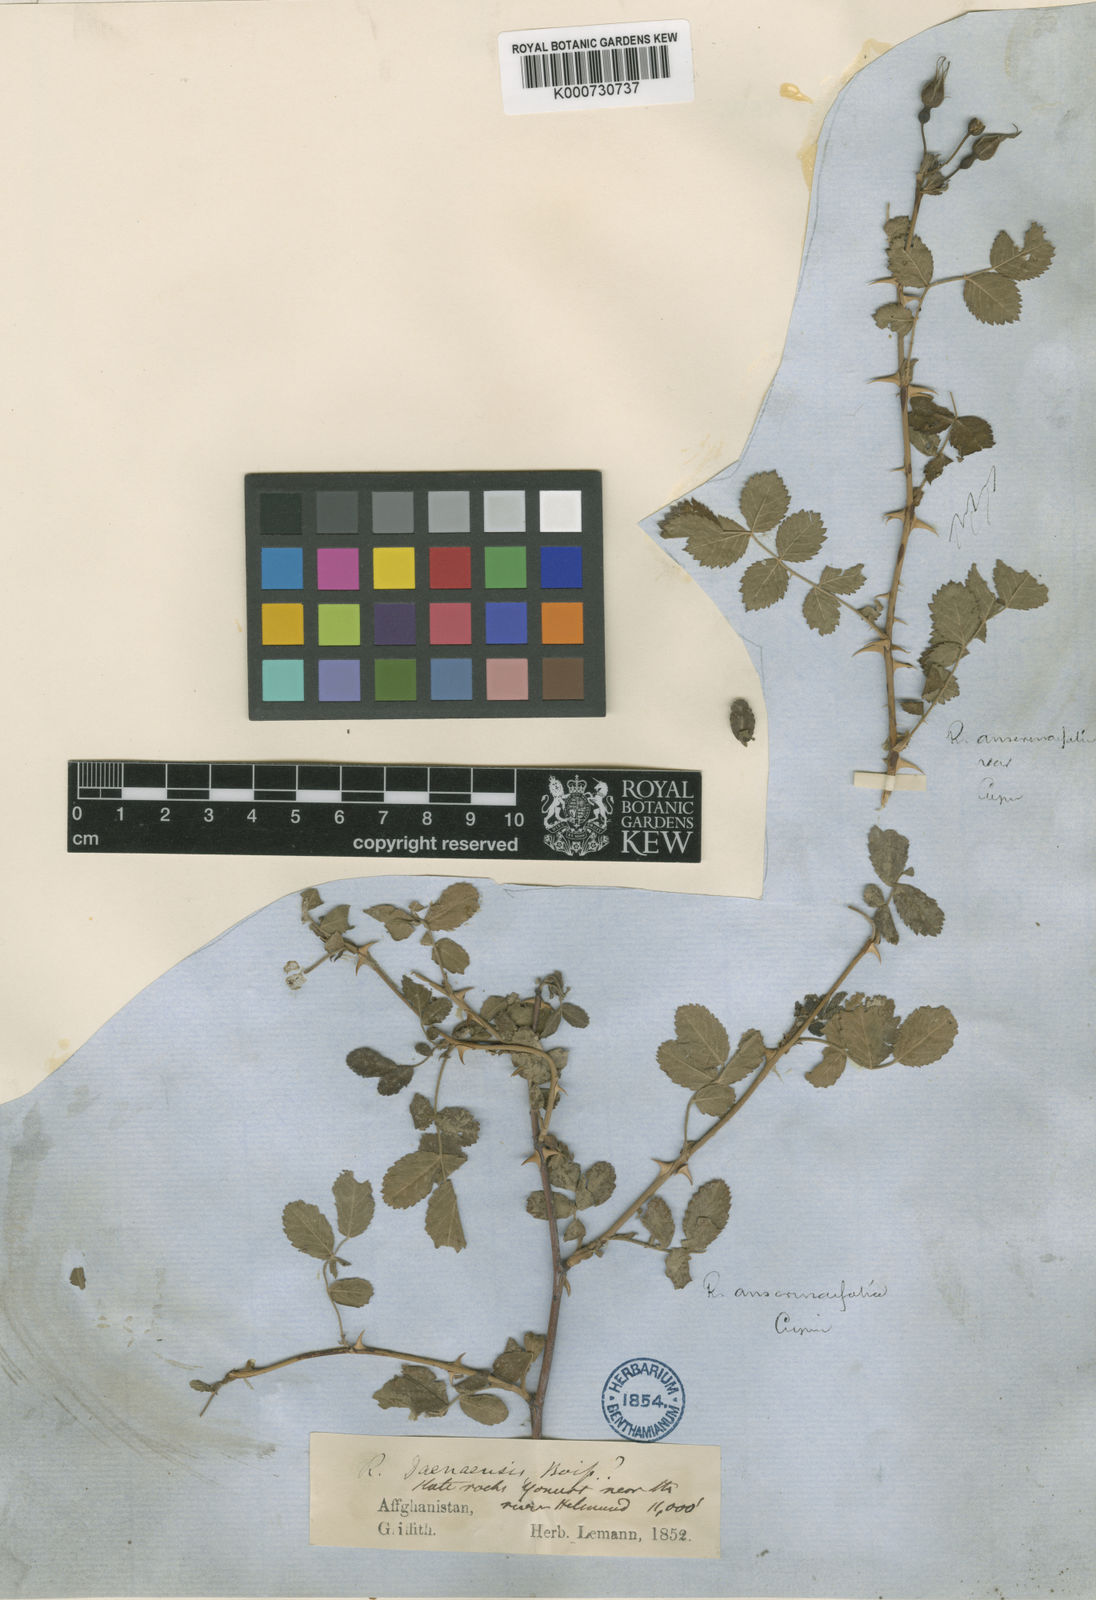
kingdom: Plantae
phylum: Tracheophyta
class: Magnoliopsida
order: Rosales
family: Rosaceae
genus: Rosa
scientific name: Rosa beggeriana
